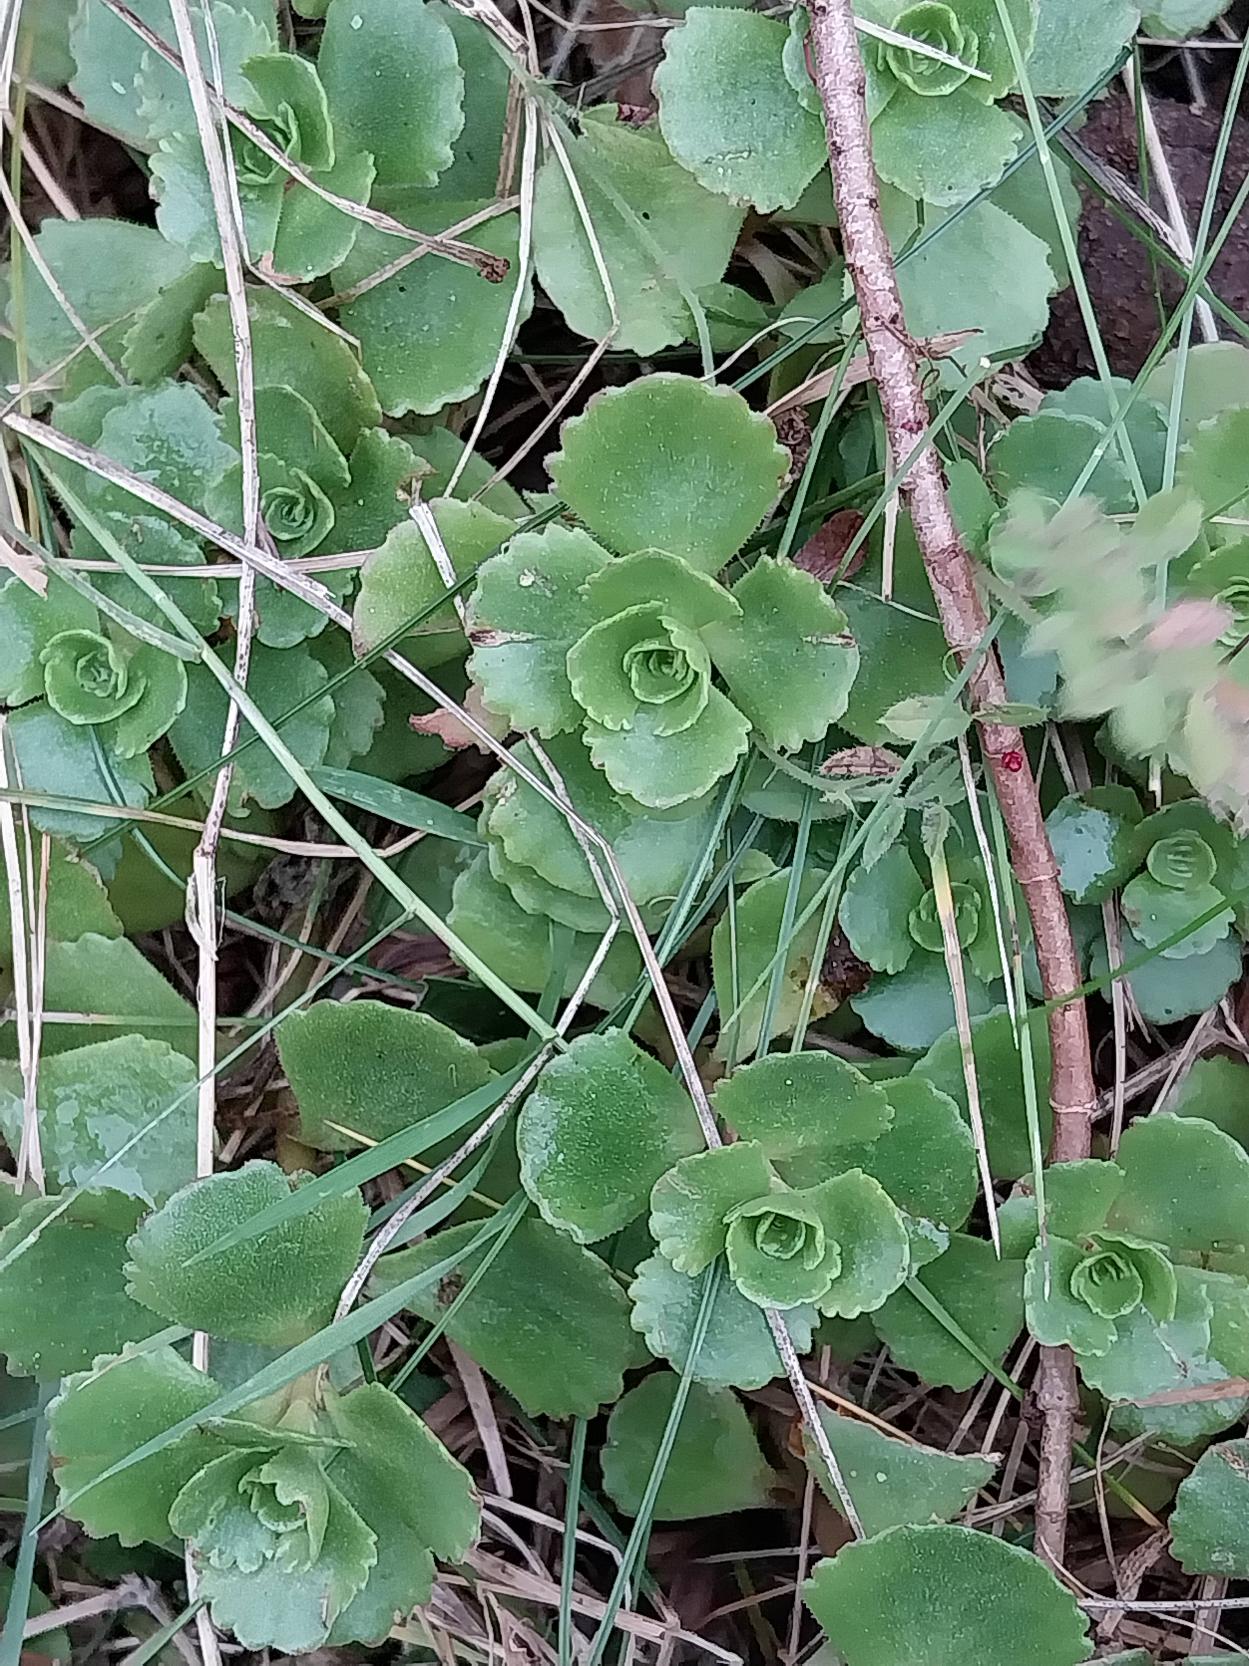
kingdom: Plantae
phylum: Tracheophyta
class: Magnoliopsida
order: Saxifragales
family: Crassulaceae
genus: Phedimus
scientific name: Phedimus spurius
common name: Rød stenurt
